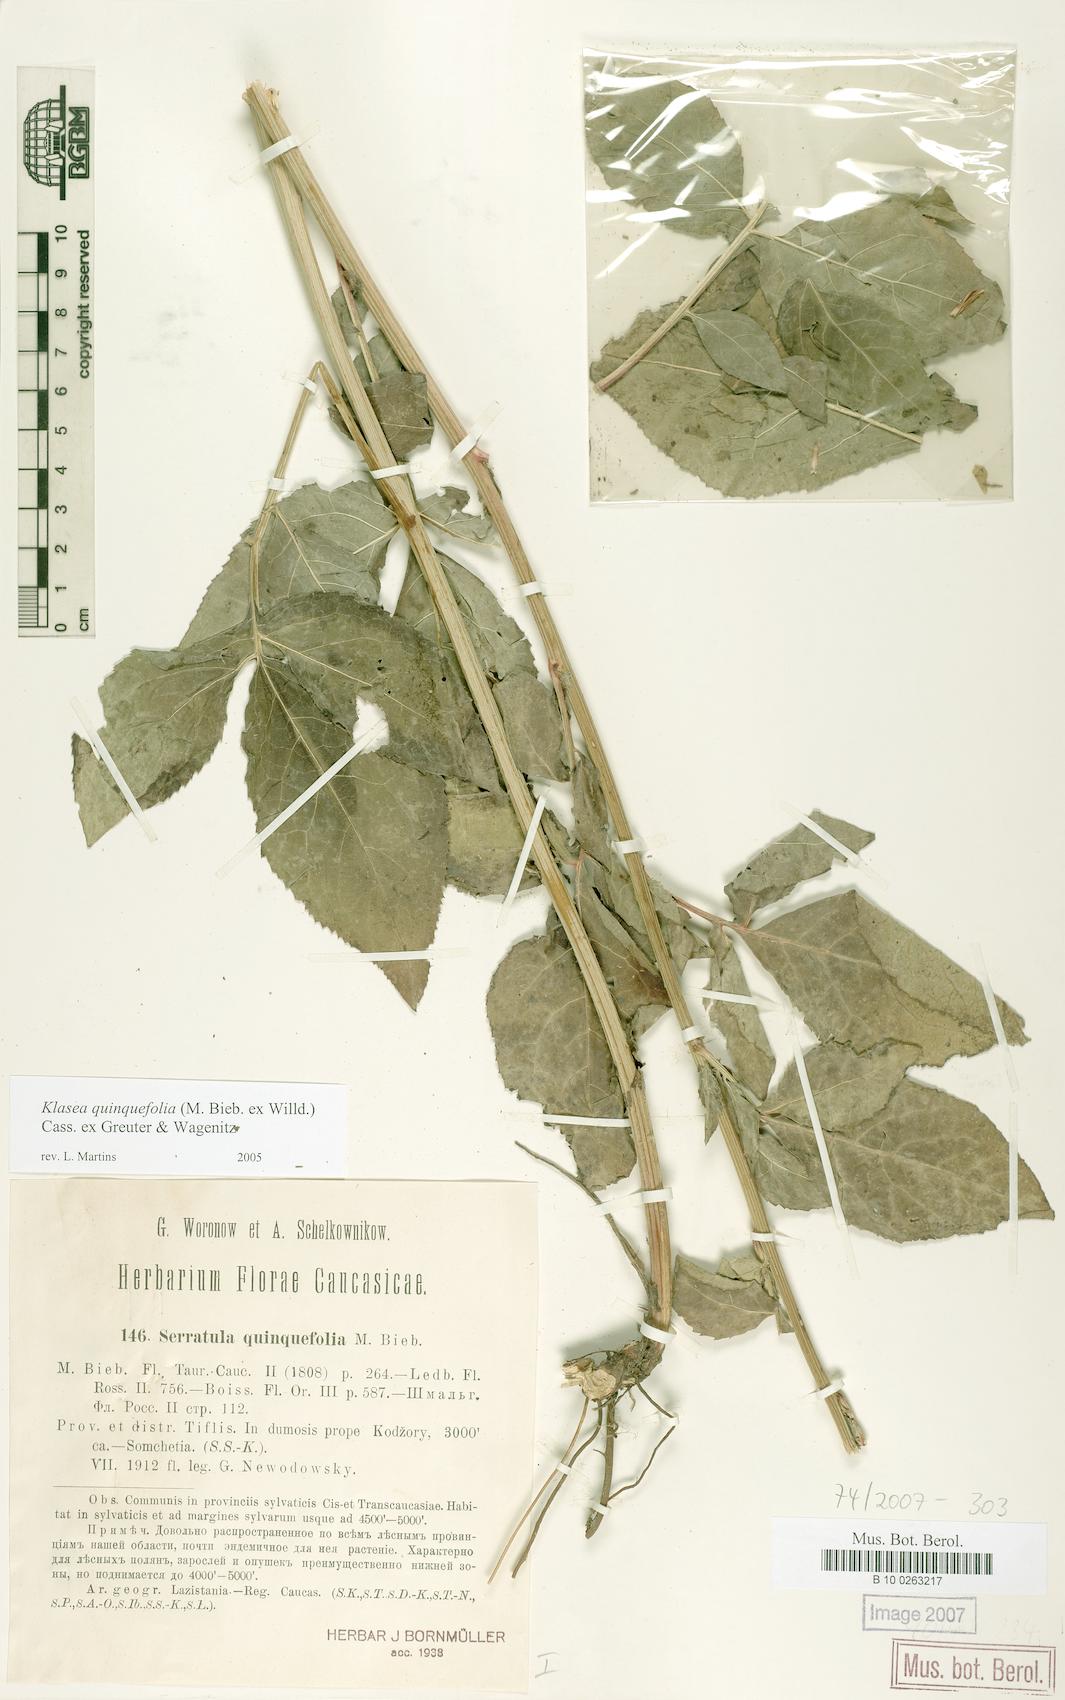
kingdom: Plantae
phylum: Tracheophyta
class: Magnoliopsida
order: Asterales
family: Asteraceae
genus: Klasea
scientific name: Klasea quinquefolia
